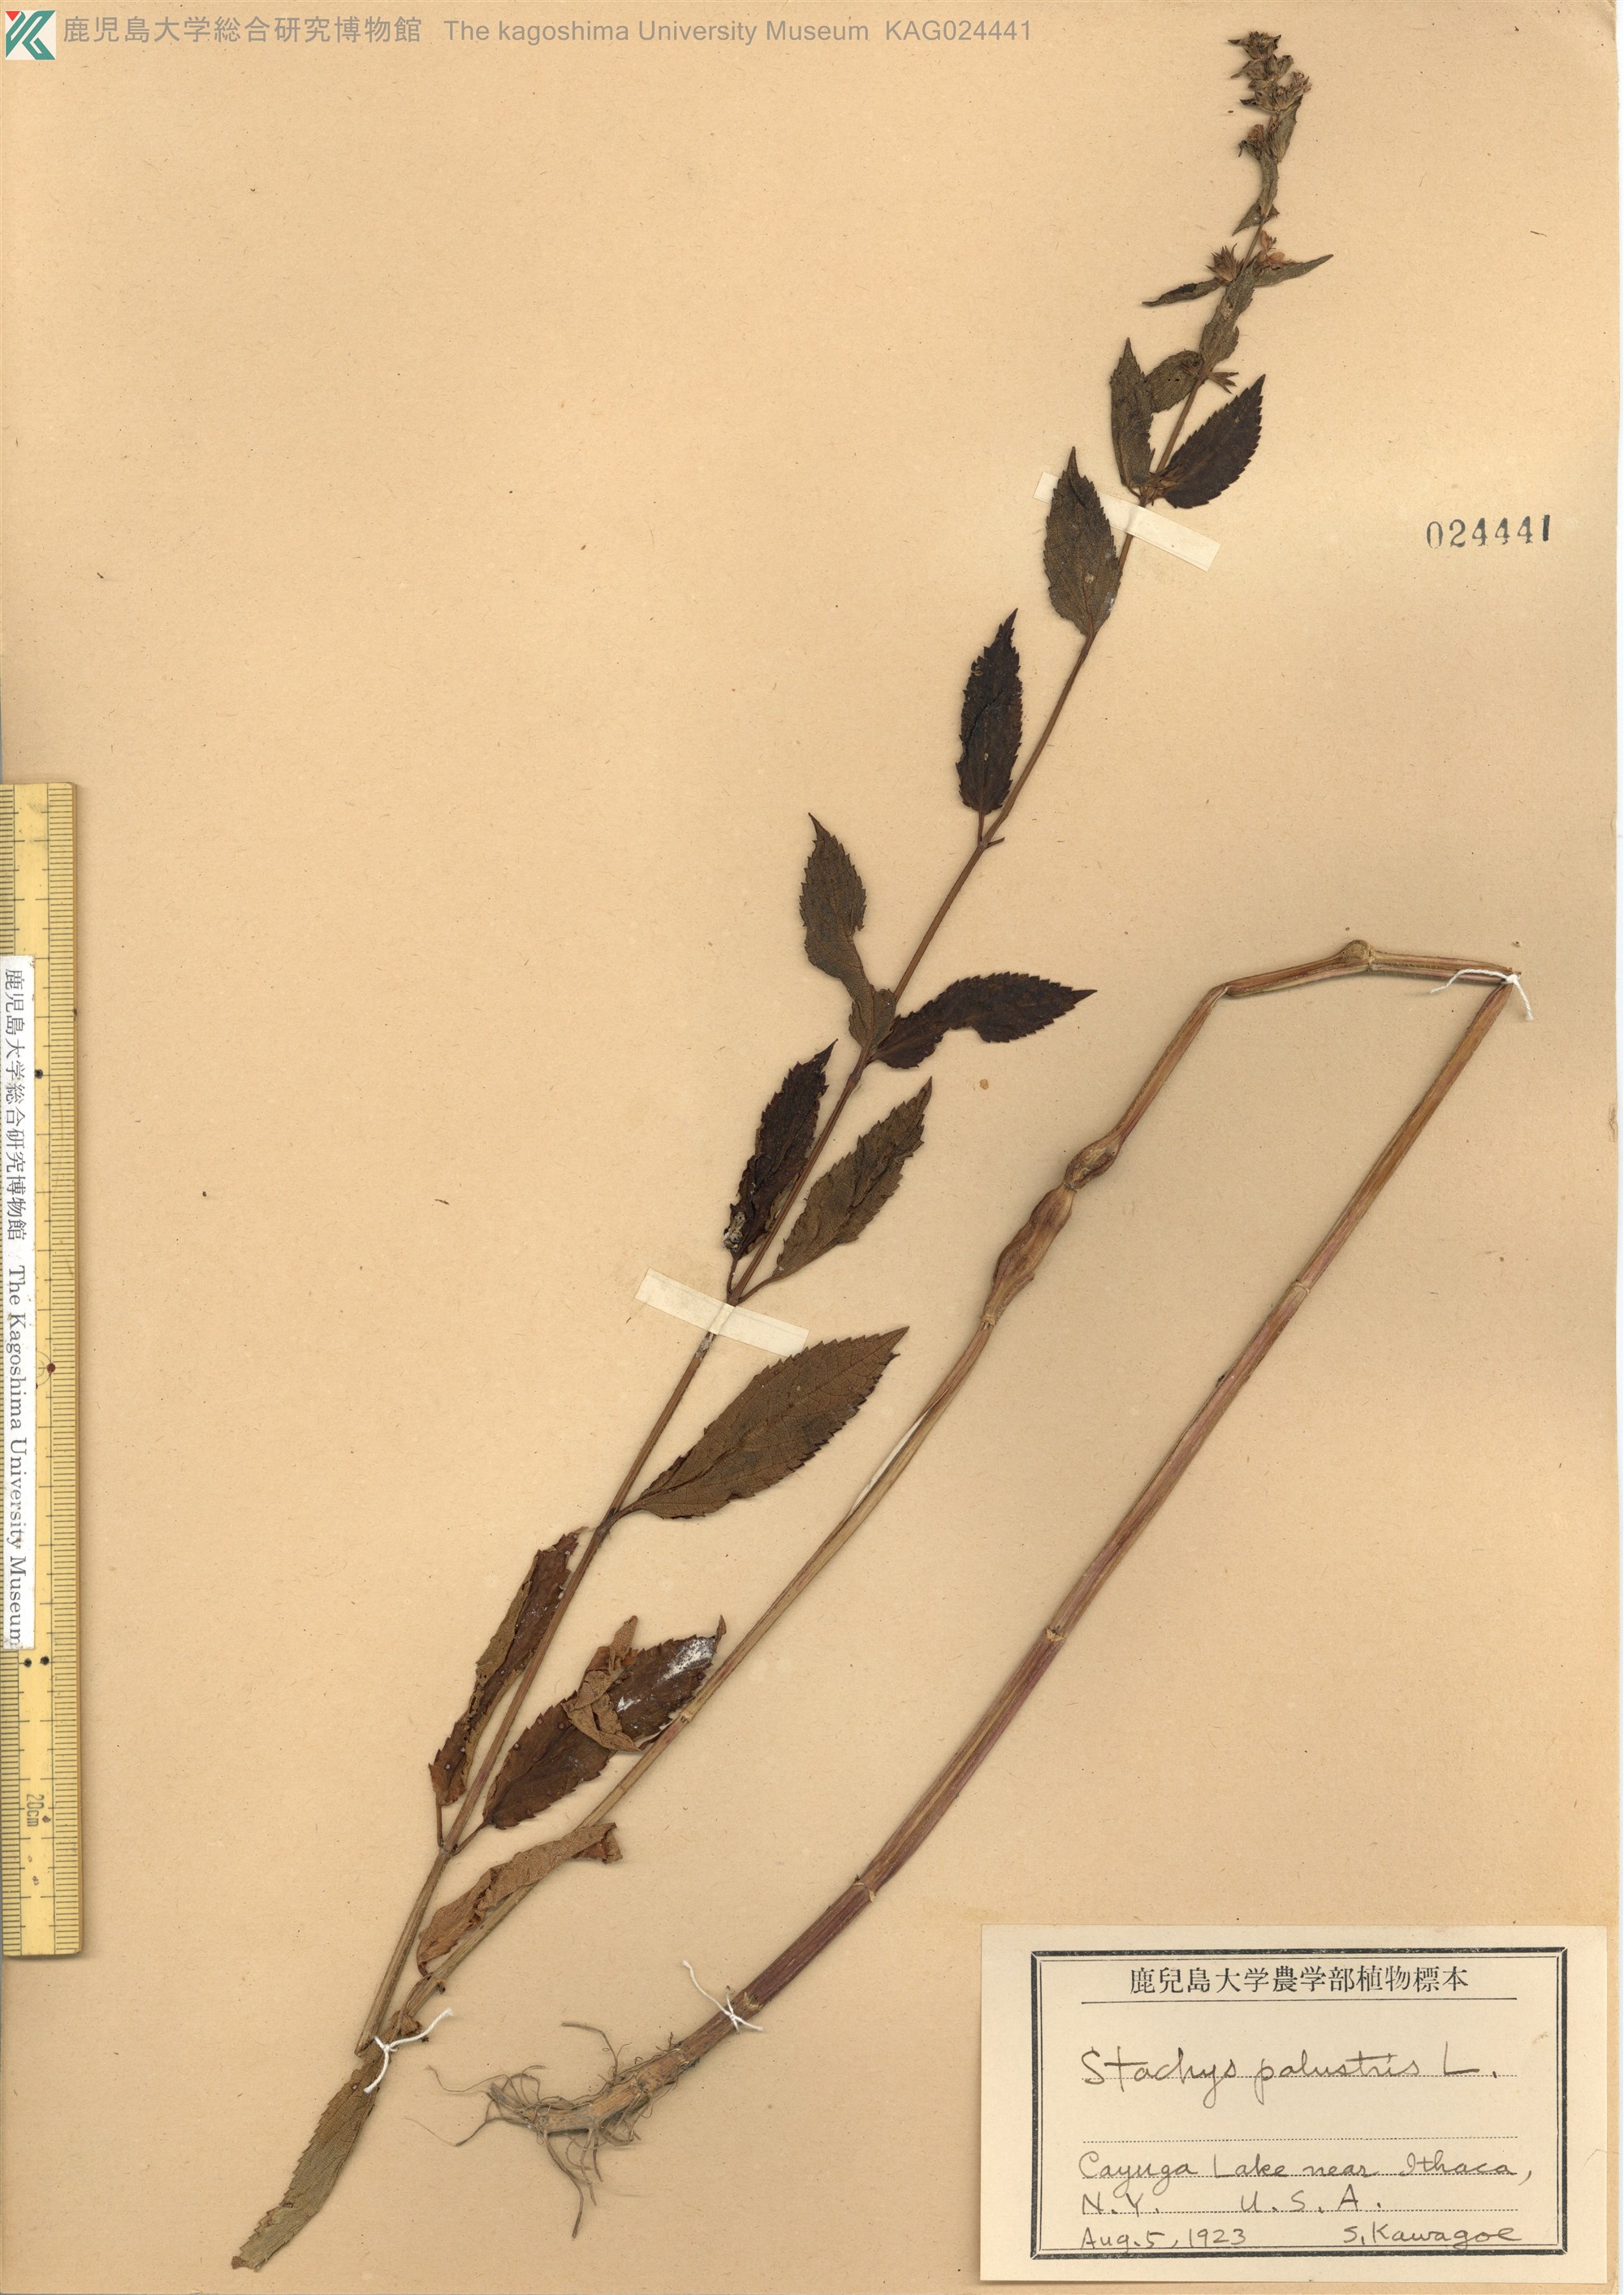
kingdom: Plantae
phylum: Tracheophyta
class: Magnoliopsida
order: Lamiales
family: Lamiaceae
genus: Stachys
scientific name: Stachys palustris
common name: Marsh woundwort
